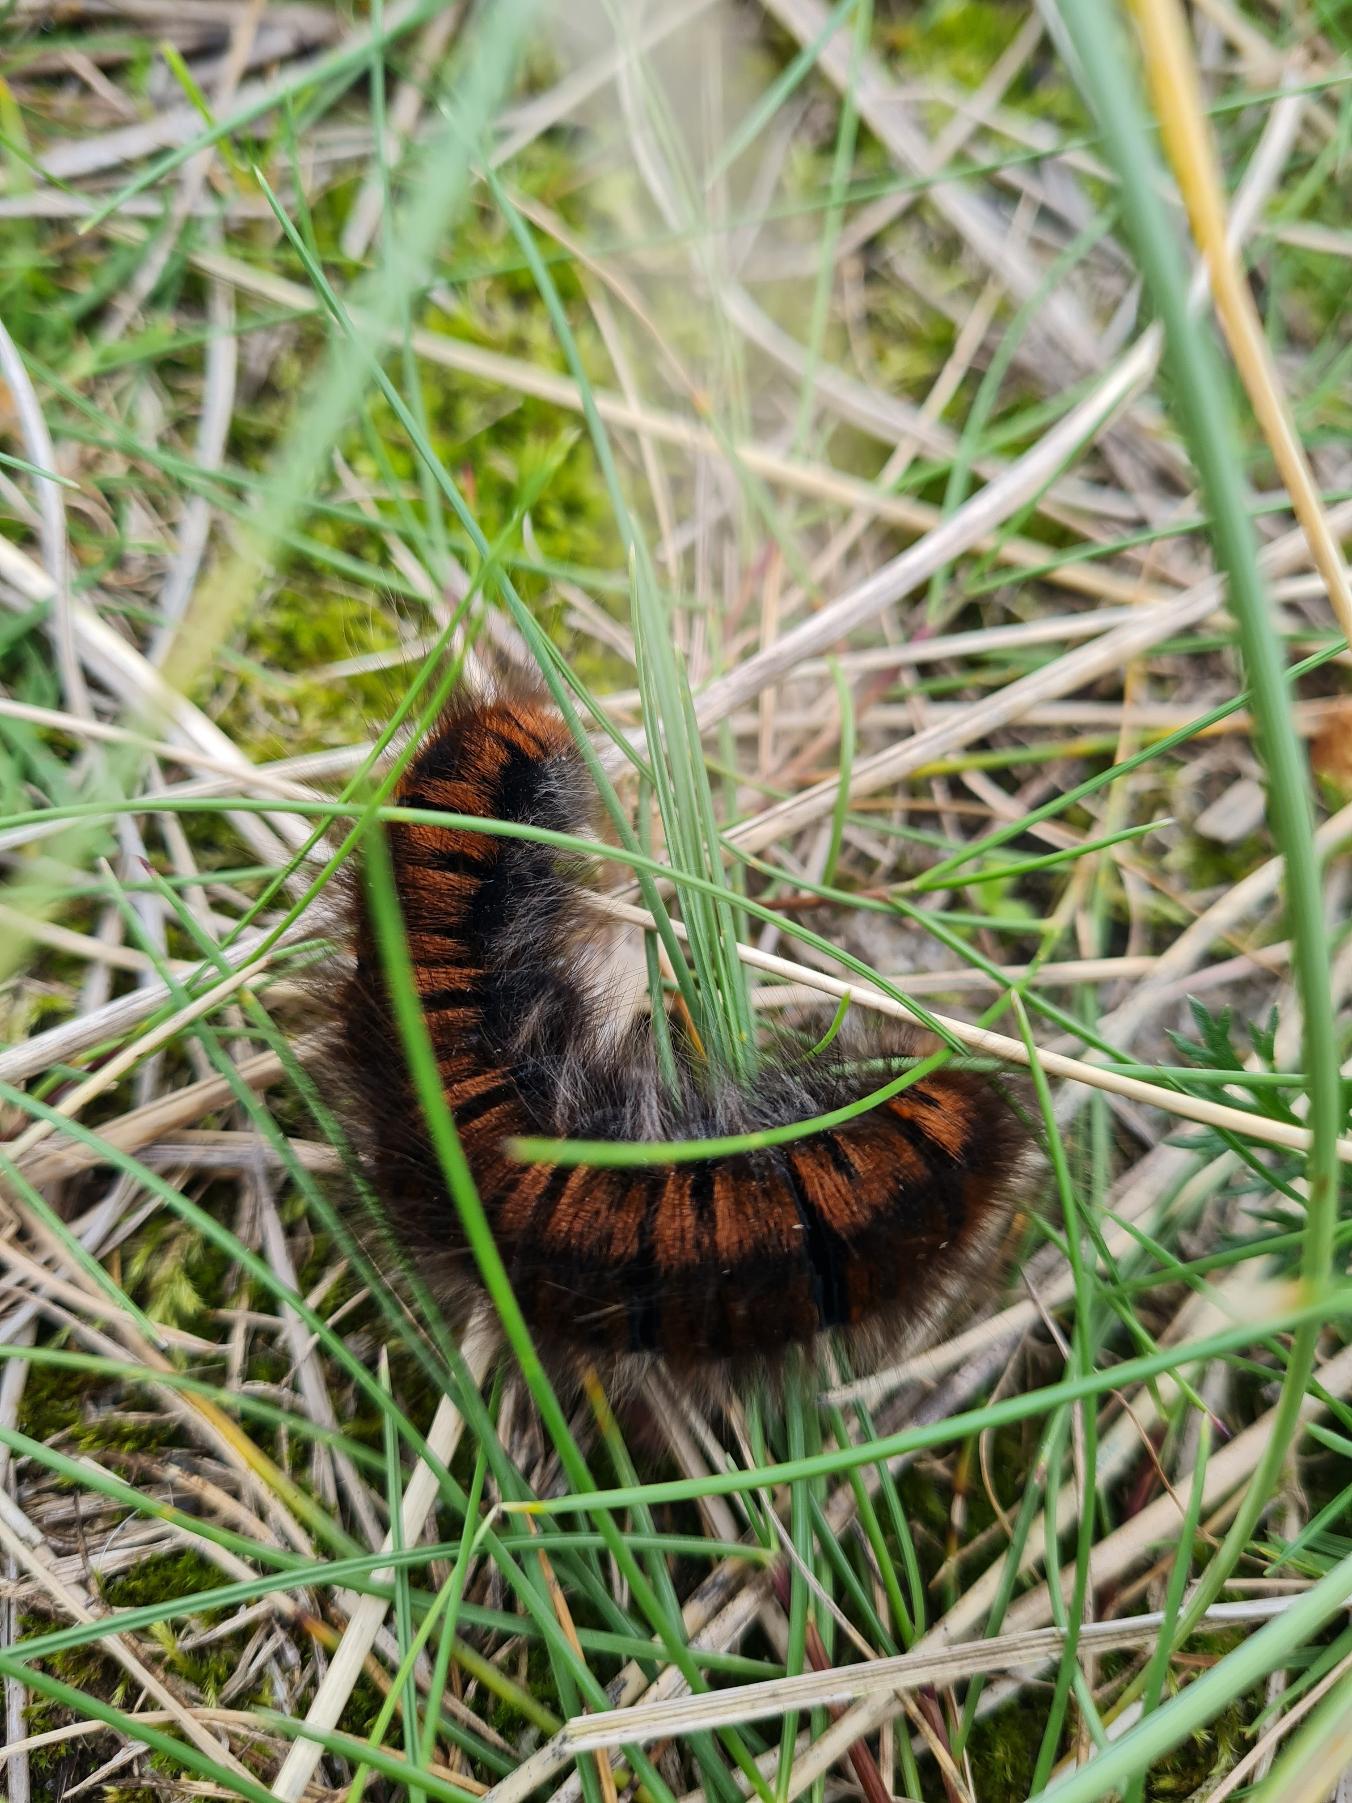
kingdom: Animalia
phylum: Arthropoda
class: Insecta
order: Lepidoptera
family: Lasiocampidae
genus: Macrothylacia
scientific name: Macrothylacia rubi
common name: Brombærspinder
